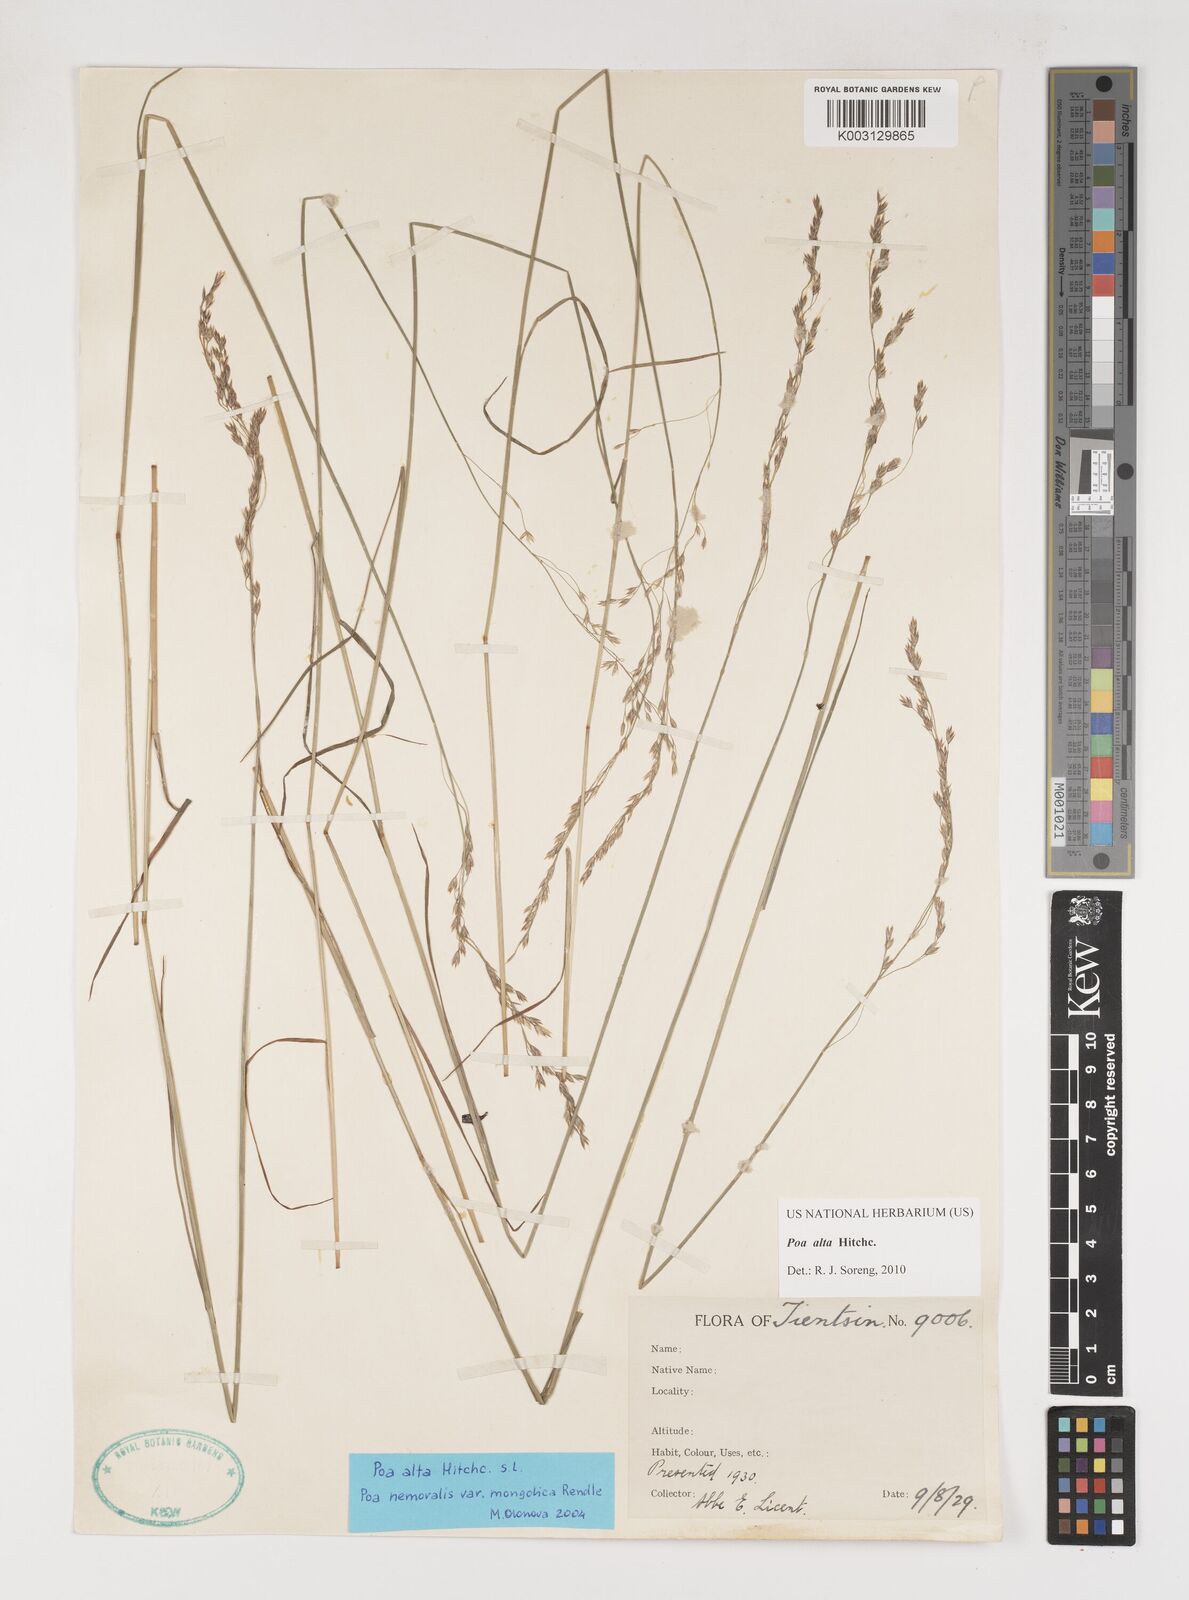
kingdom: Plantae
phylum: Tracheophyta
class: Liliopsida
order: Poales
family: Poaceae
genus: Poa
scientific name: Poa alta
